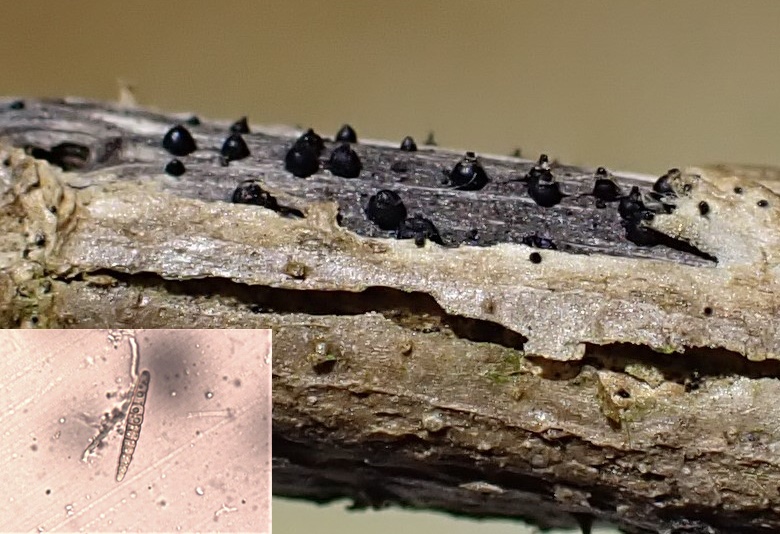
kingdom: Fungi
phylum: Ascomycota
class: Dothideomycetes
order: Pleosporales
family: Leptosphaeriaceae
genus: Leptosphaeria
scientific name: Leptosphaeria acuta
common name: spids kulkegle
